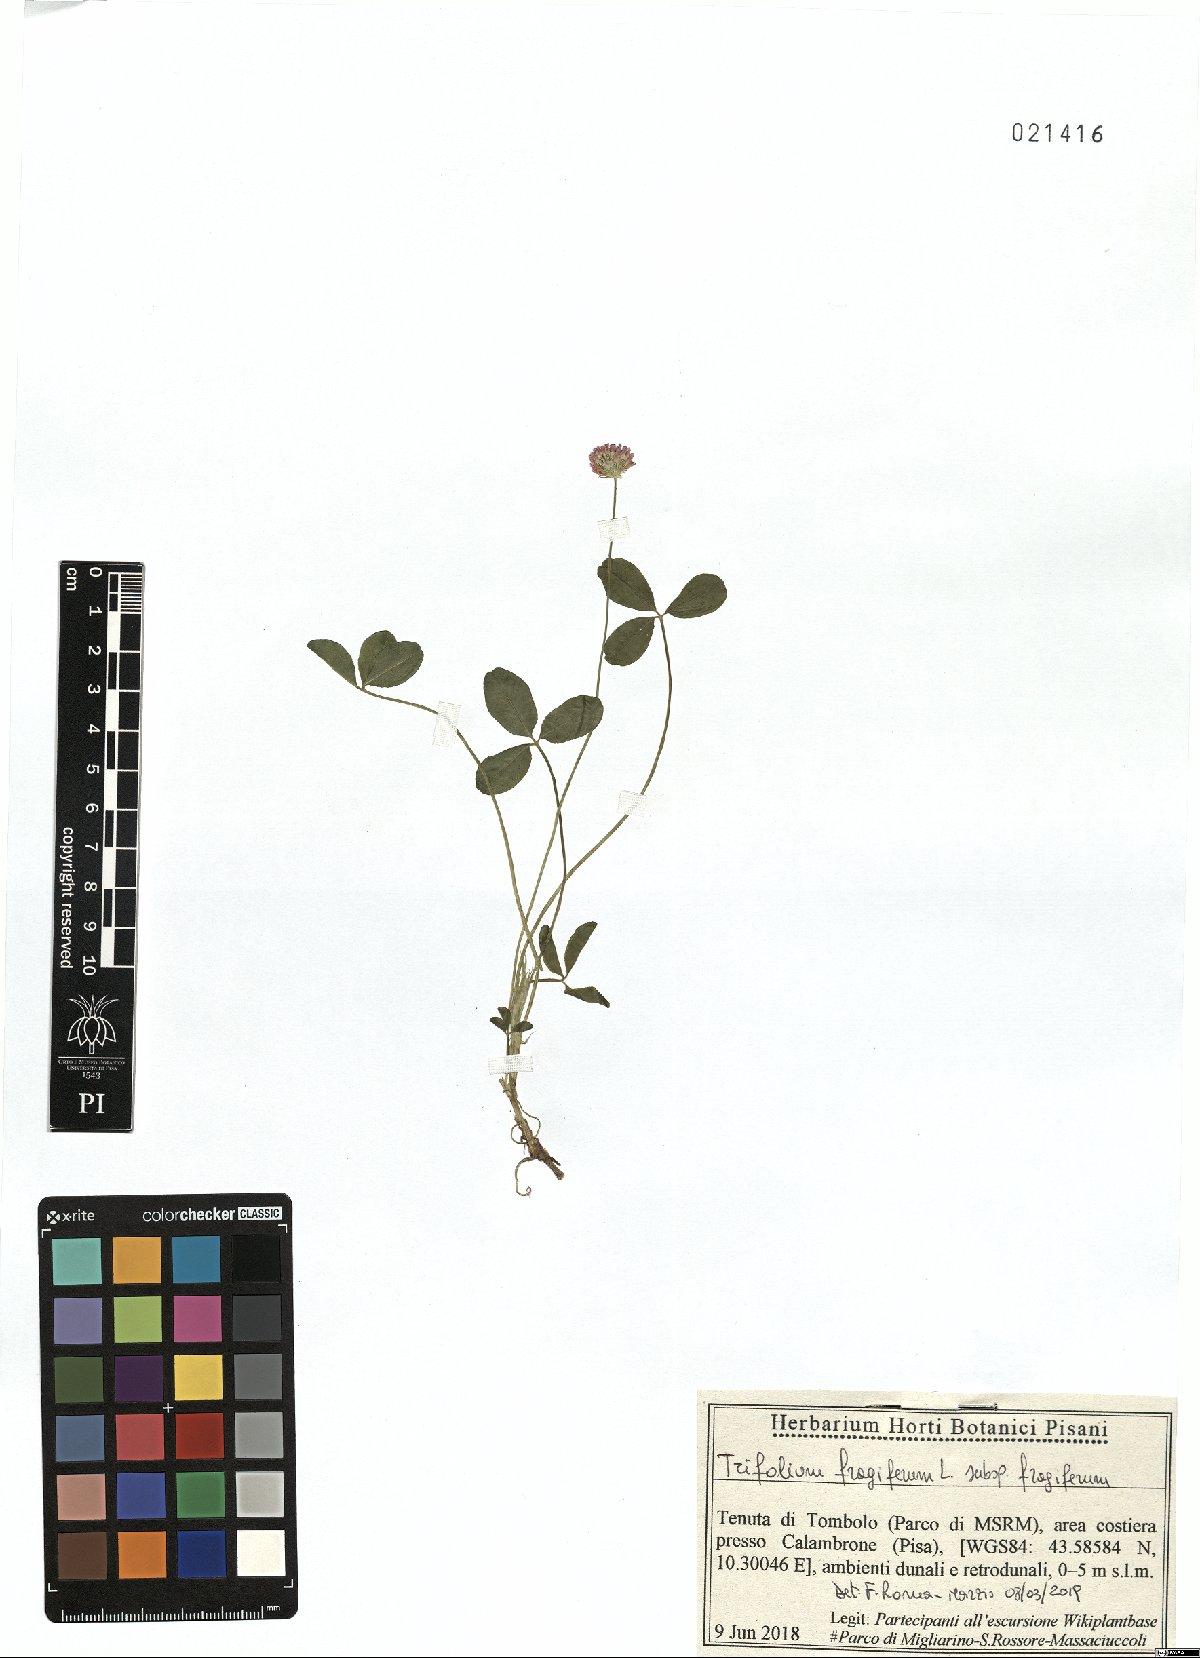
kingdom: Plantae
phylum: Tracheophyta
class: Magnoliopsida
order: Fabales
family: Fabaceae
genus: Trifolium
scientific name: Trifolium fragiferum
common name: Strawberry clover
